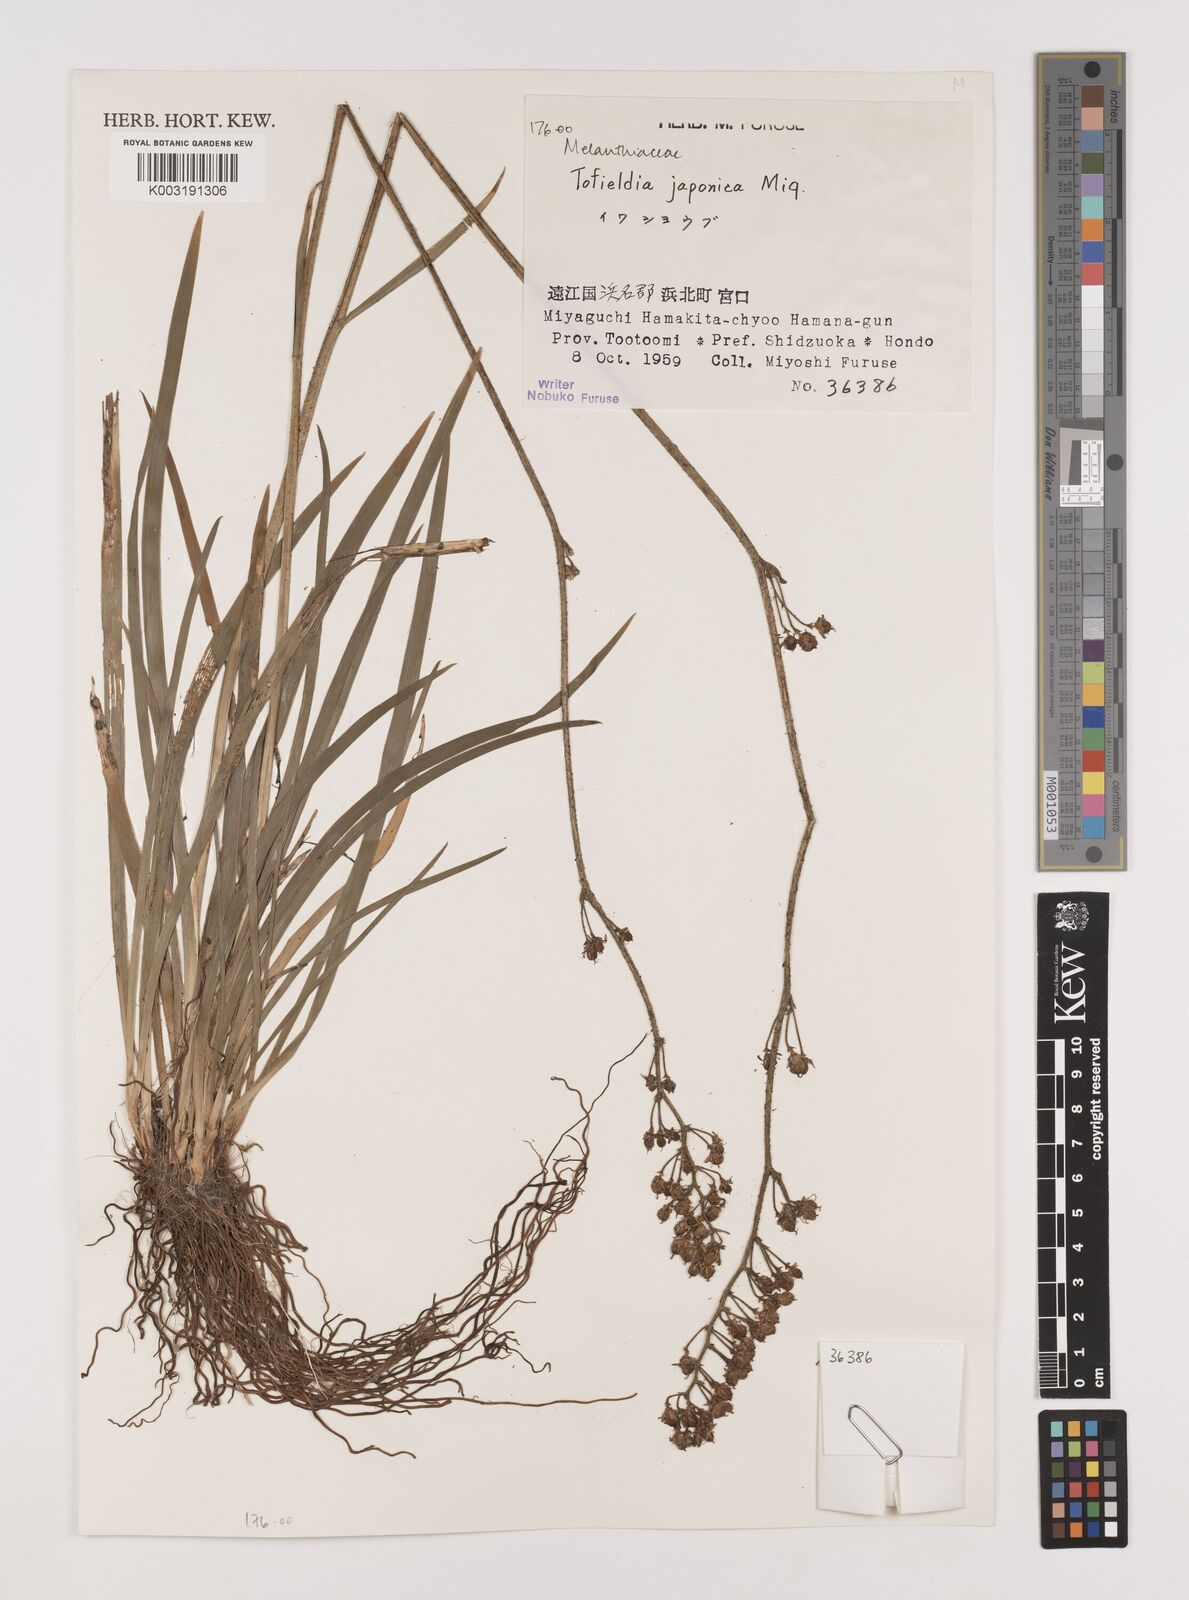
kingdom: Plantae
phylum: Tracheophyta
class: Liliopsida
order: Alismatales
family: Tofieldiaceae
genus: Triantha
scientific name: Triantha japonica
